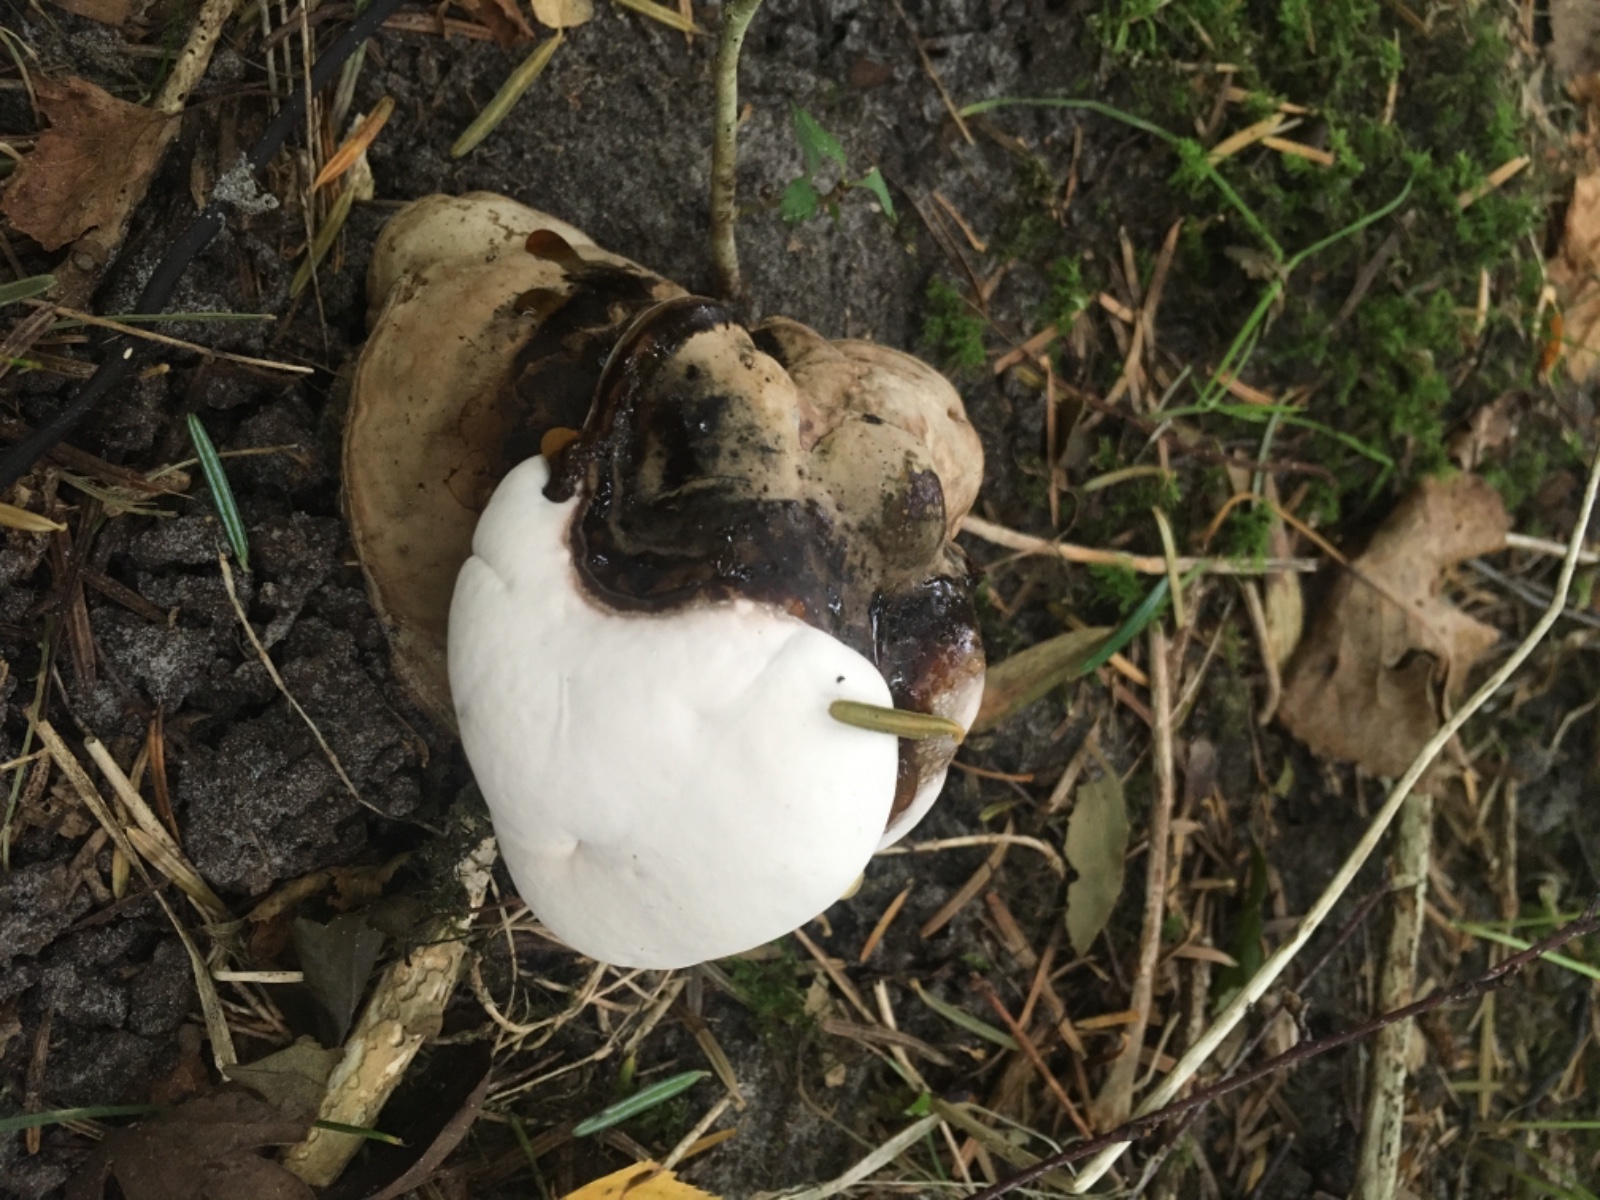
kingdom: Fungi
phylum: Basidiomycota
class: Agaricomycetes
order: Polyporales
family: Polyporaceae
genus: Ganoderma
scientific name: Ganoderma applanatum
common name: flad lakporesvamp
